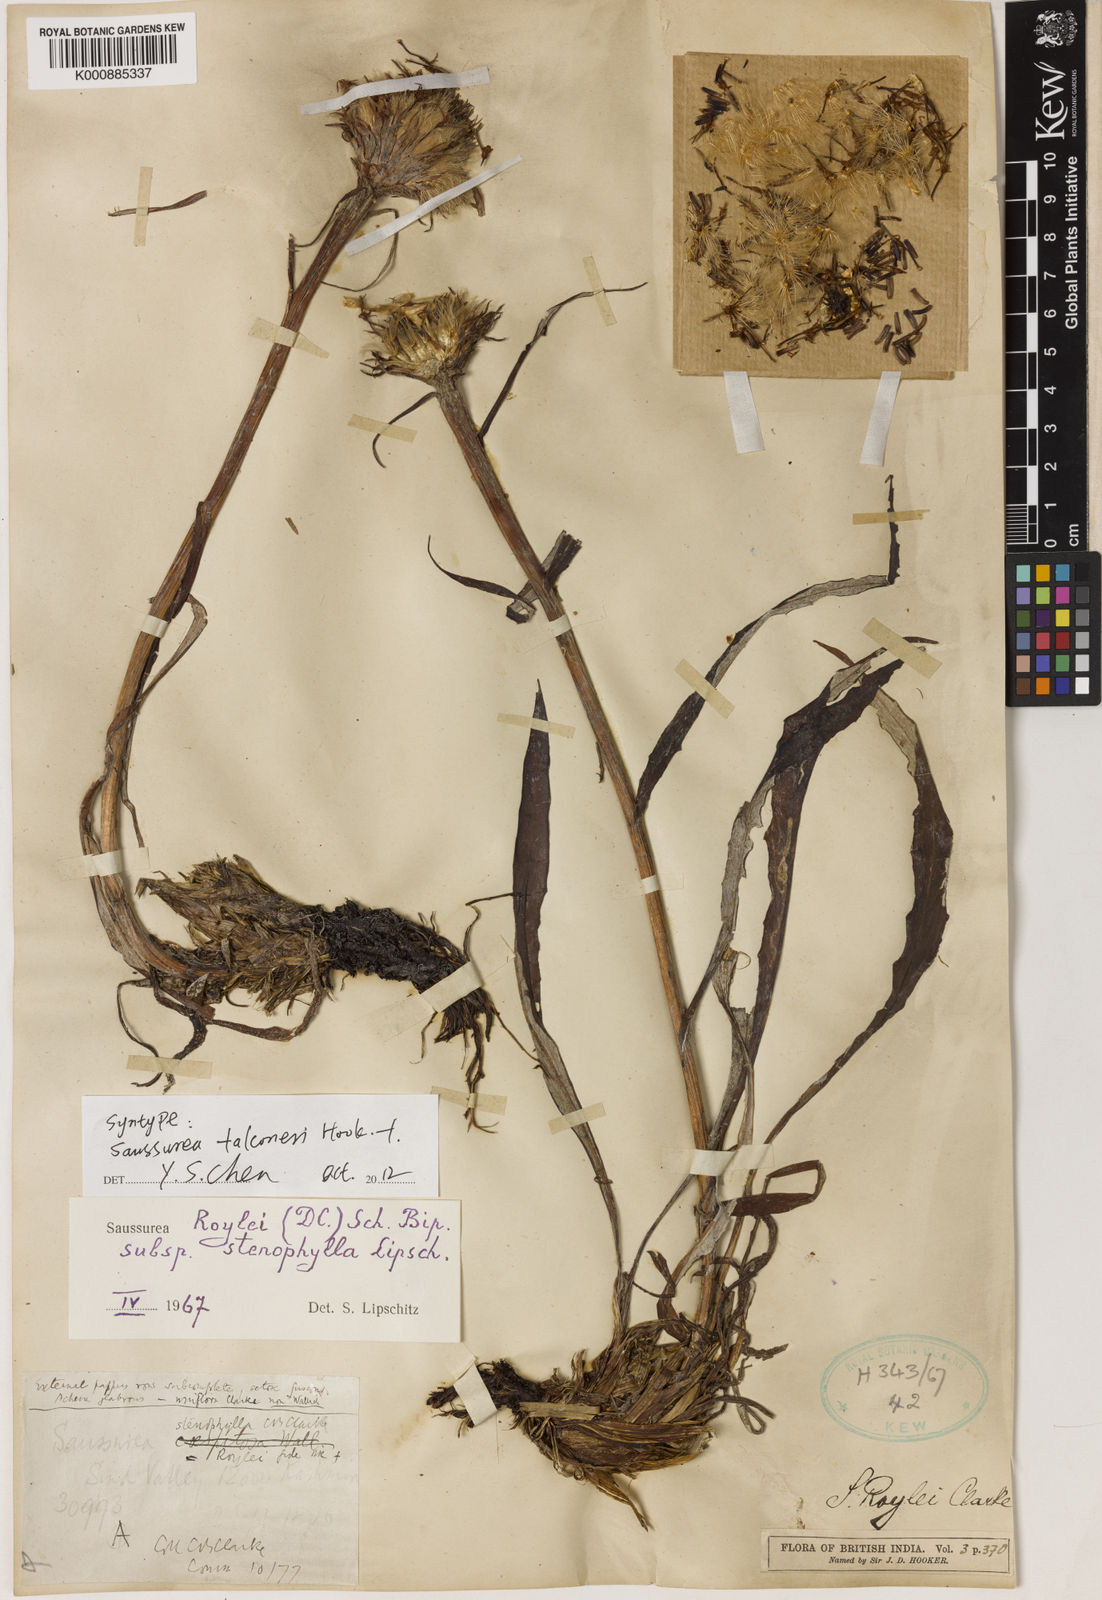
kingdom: Plantae
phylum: Tracheophyta
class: Magnoliopsida
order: Asterales
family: Asteraceae
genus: Saussurea
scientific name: Saussurea devendrae
